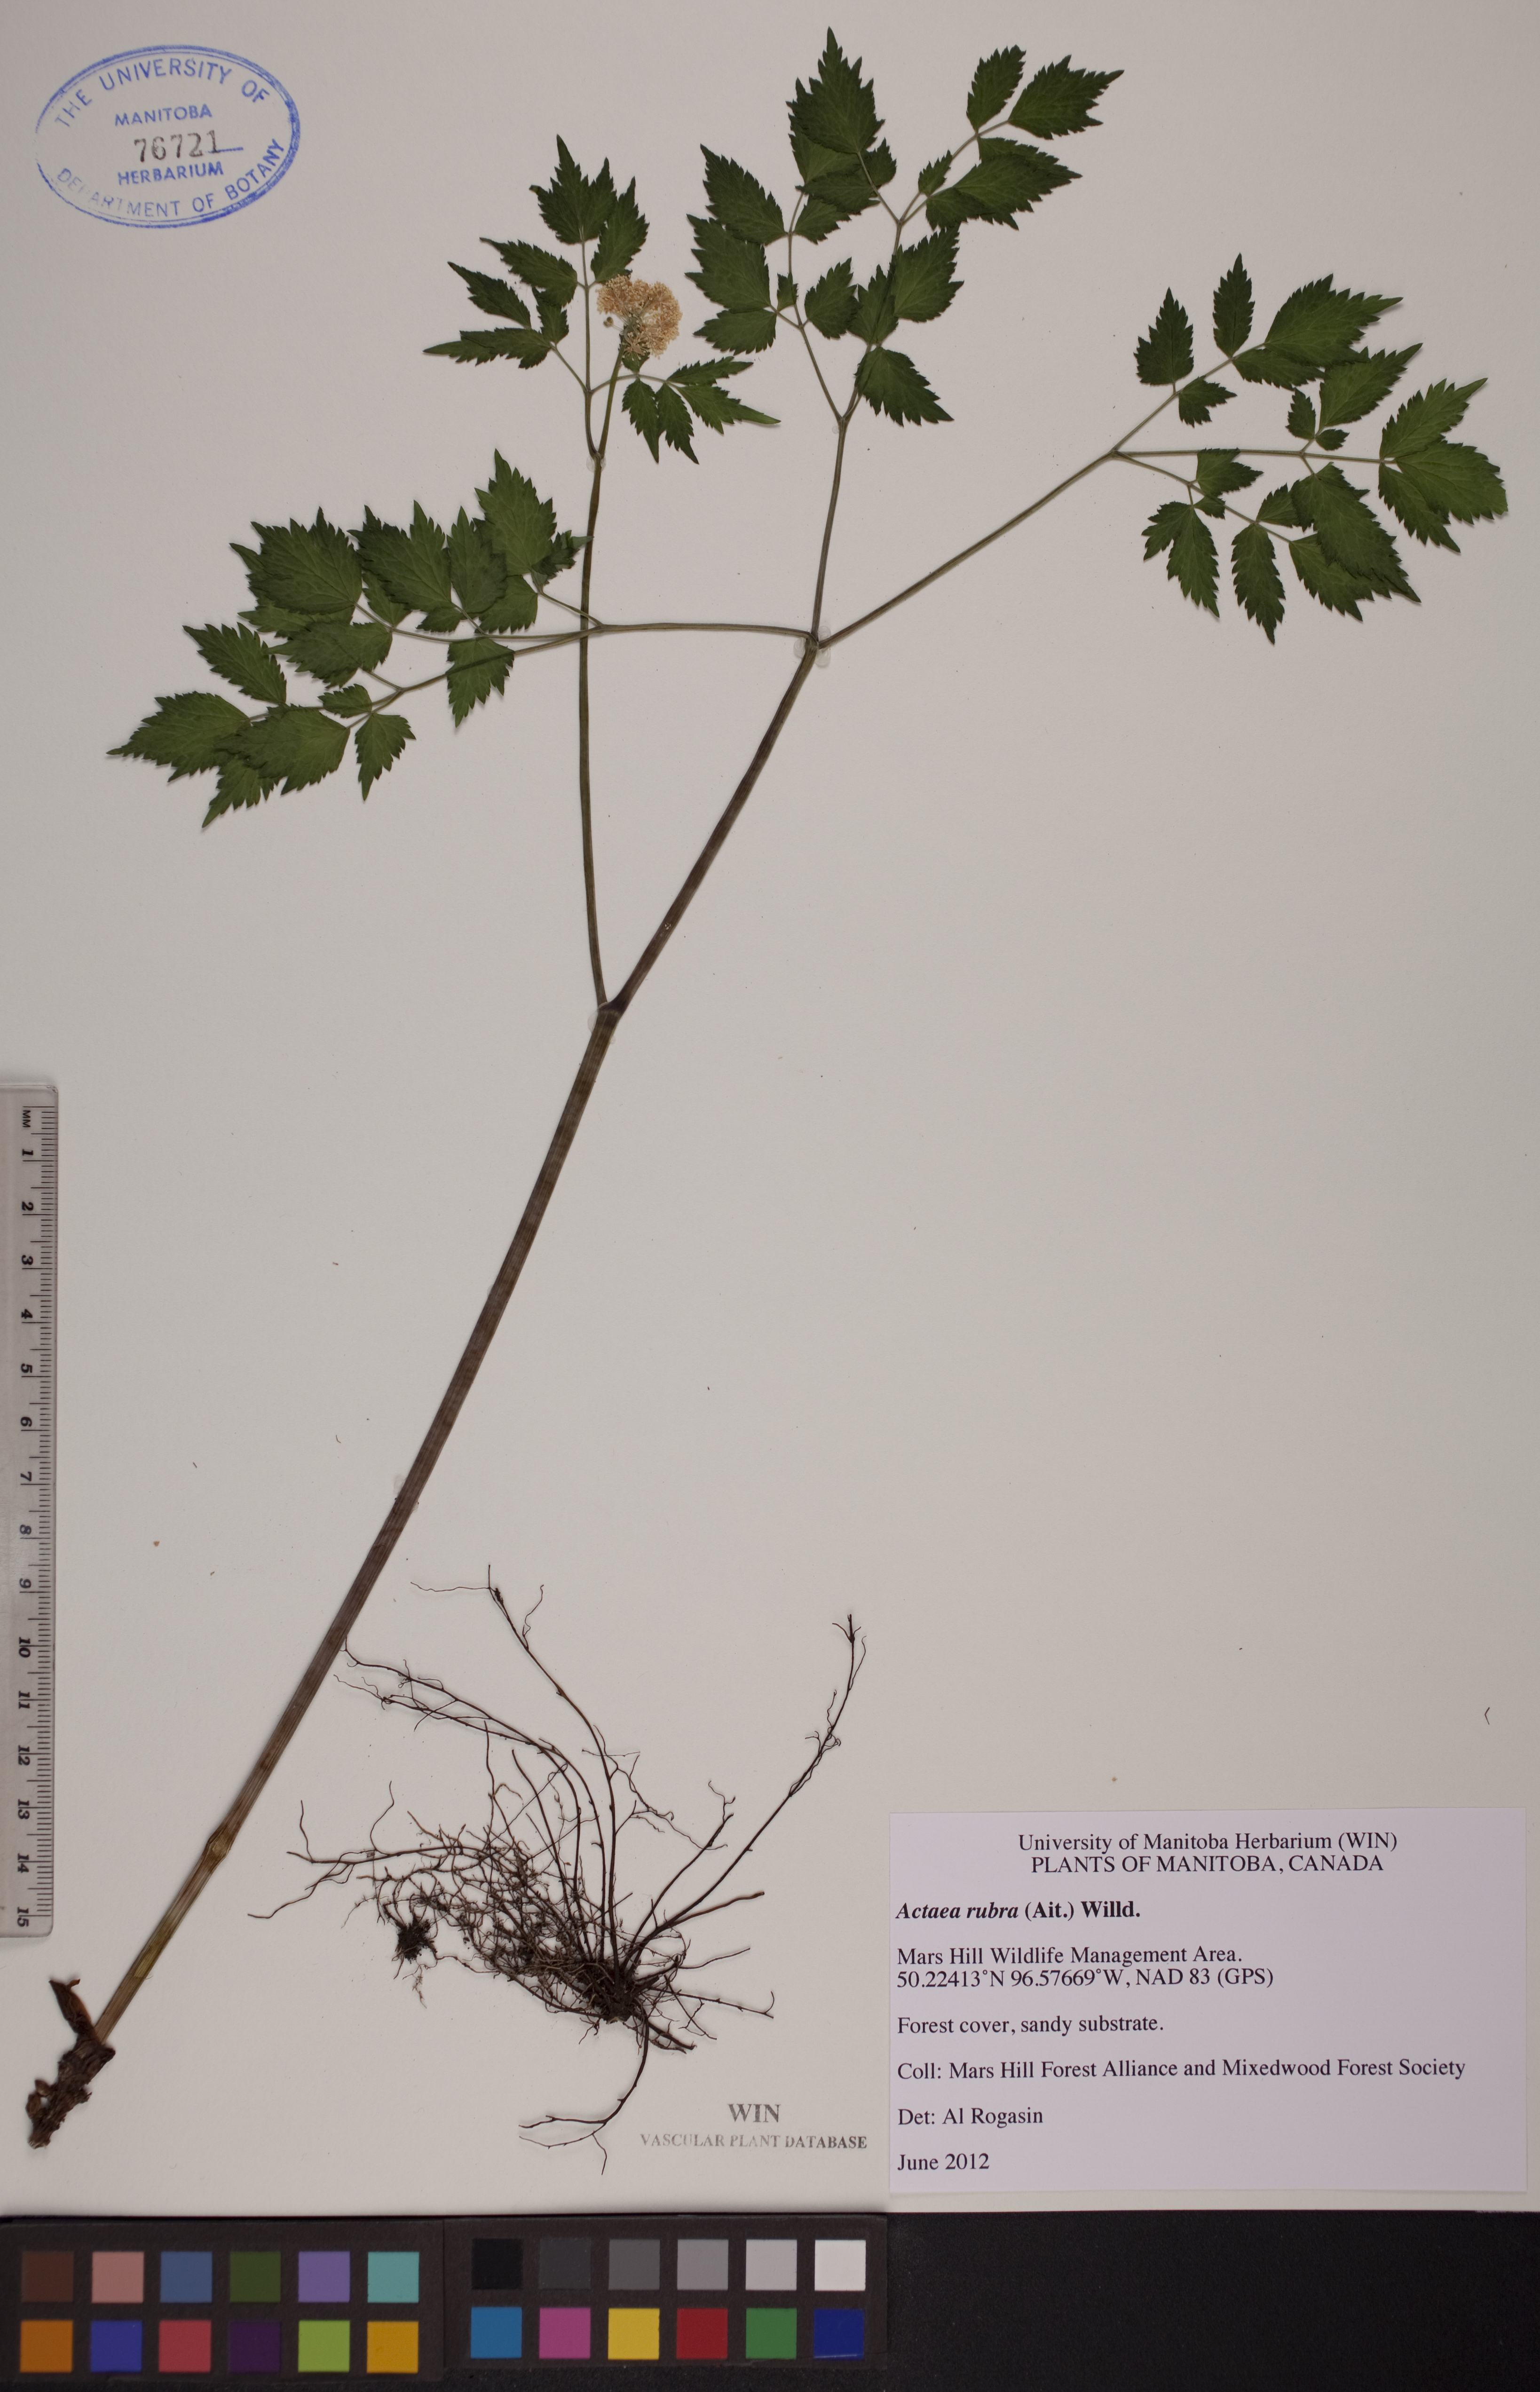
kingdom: Plantae
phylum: Tracheophyta
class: Magnoliopsida
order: Ranunculales
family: Ranunculaceae
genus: Actaea
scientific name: Actaea rubra
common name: Red baneberry
